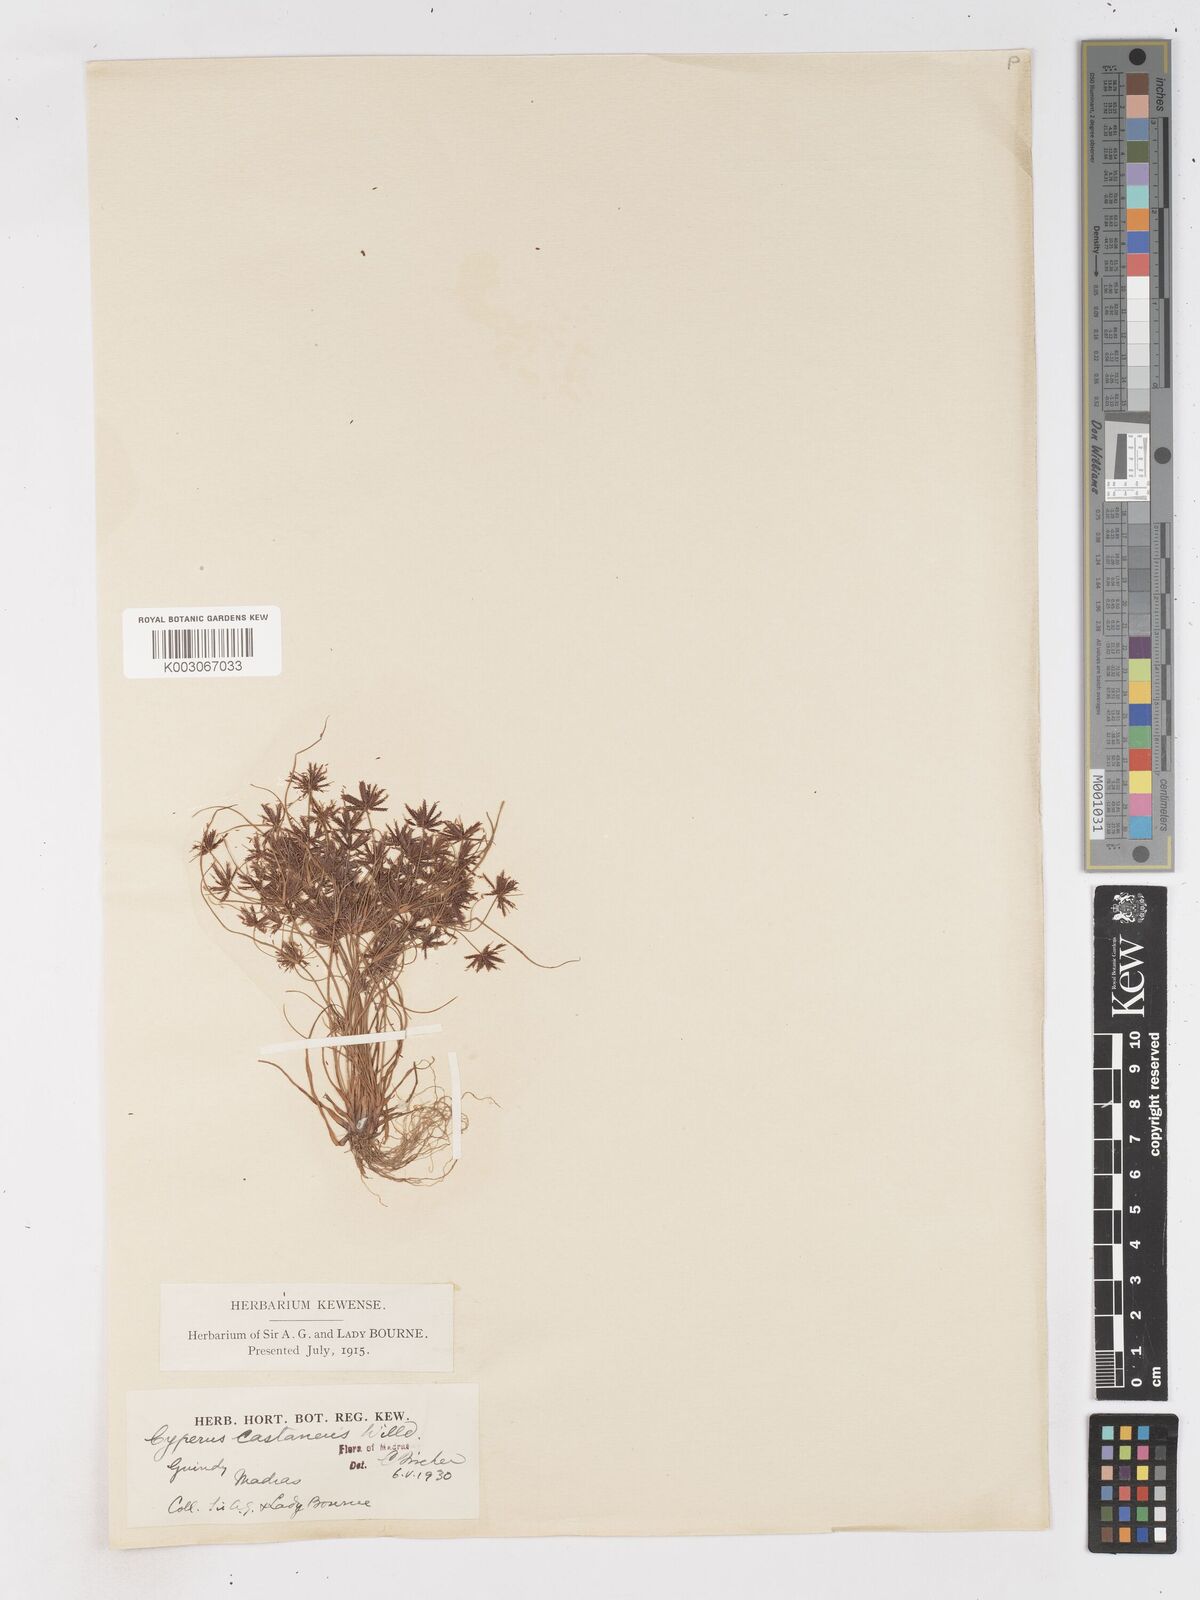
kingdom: Plantae
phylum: Tracheophyta
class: Liliopsida
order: Poales
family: Cyperaceae
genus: Cyperus
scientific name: Cyperus castaneus
